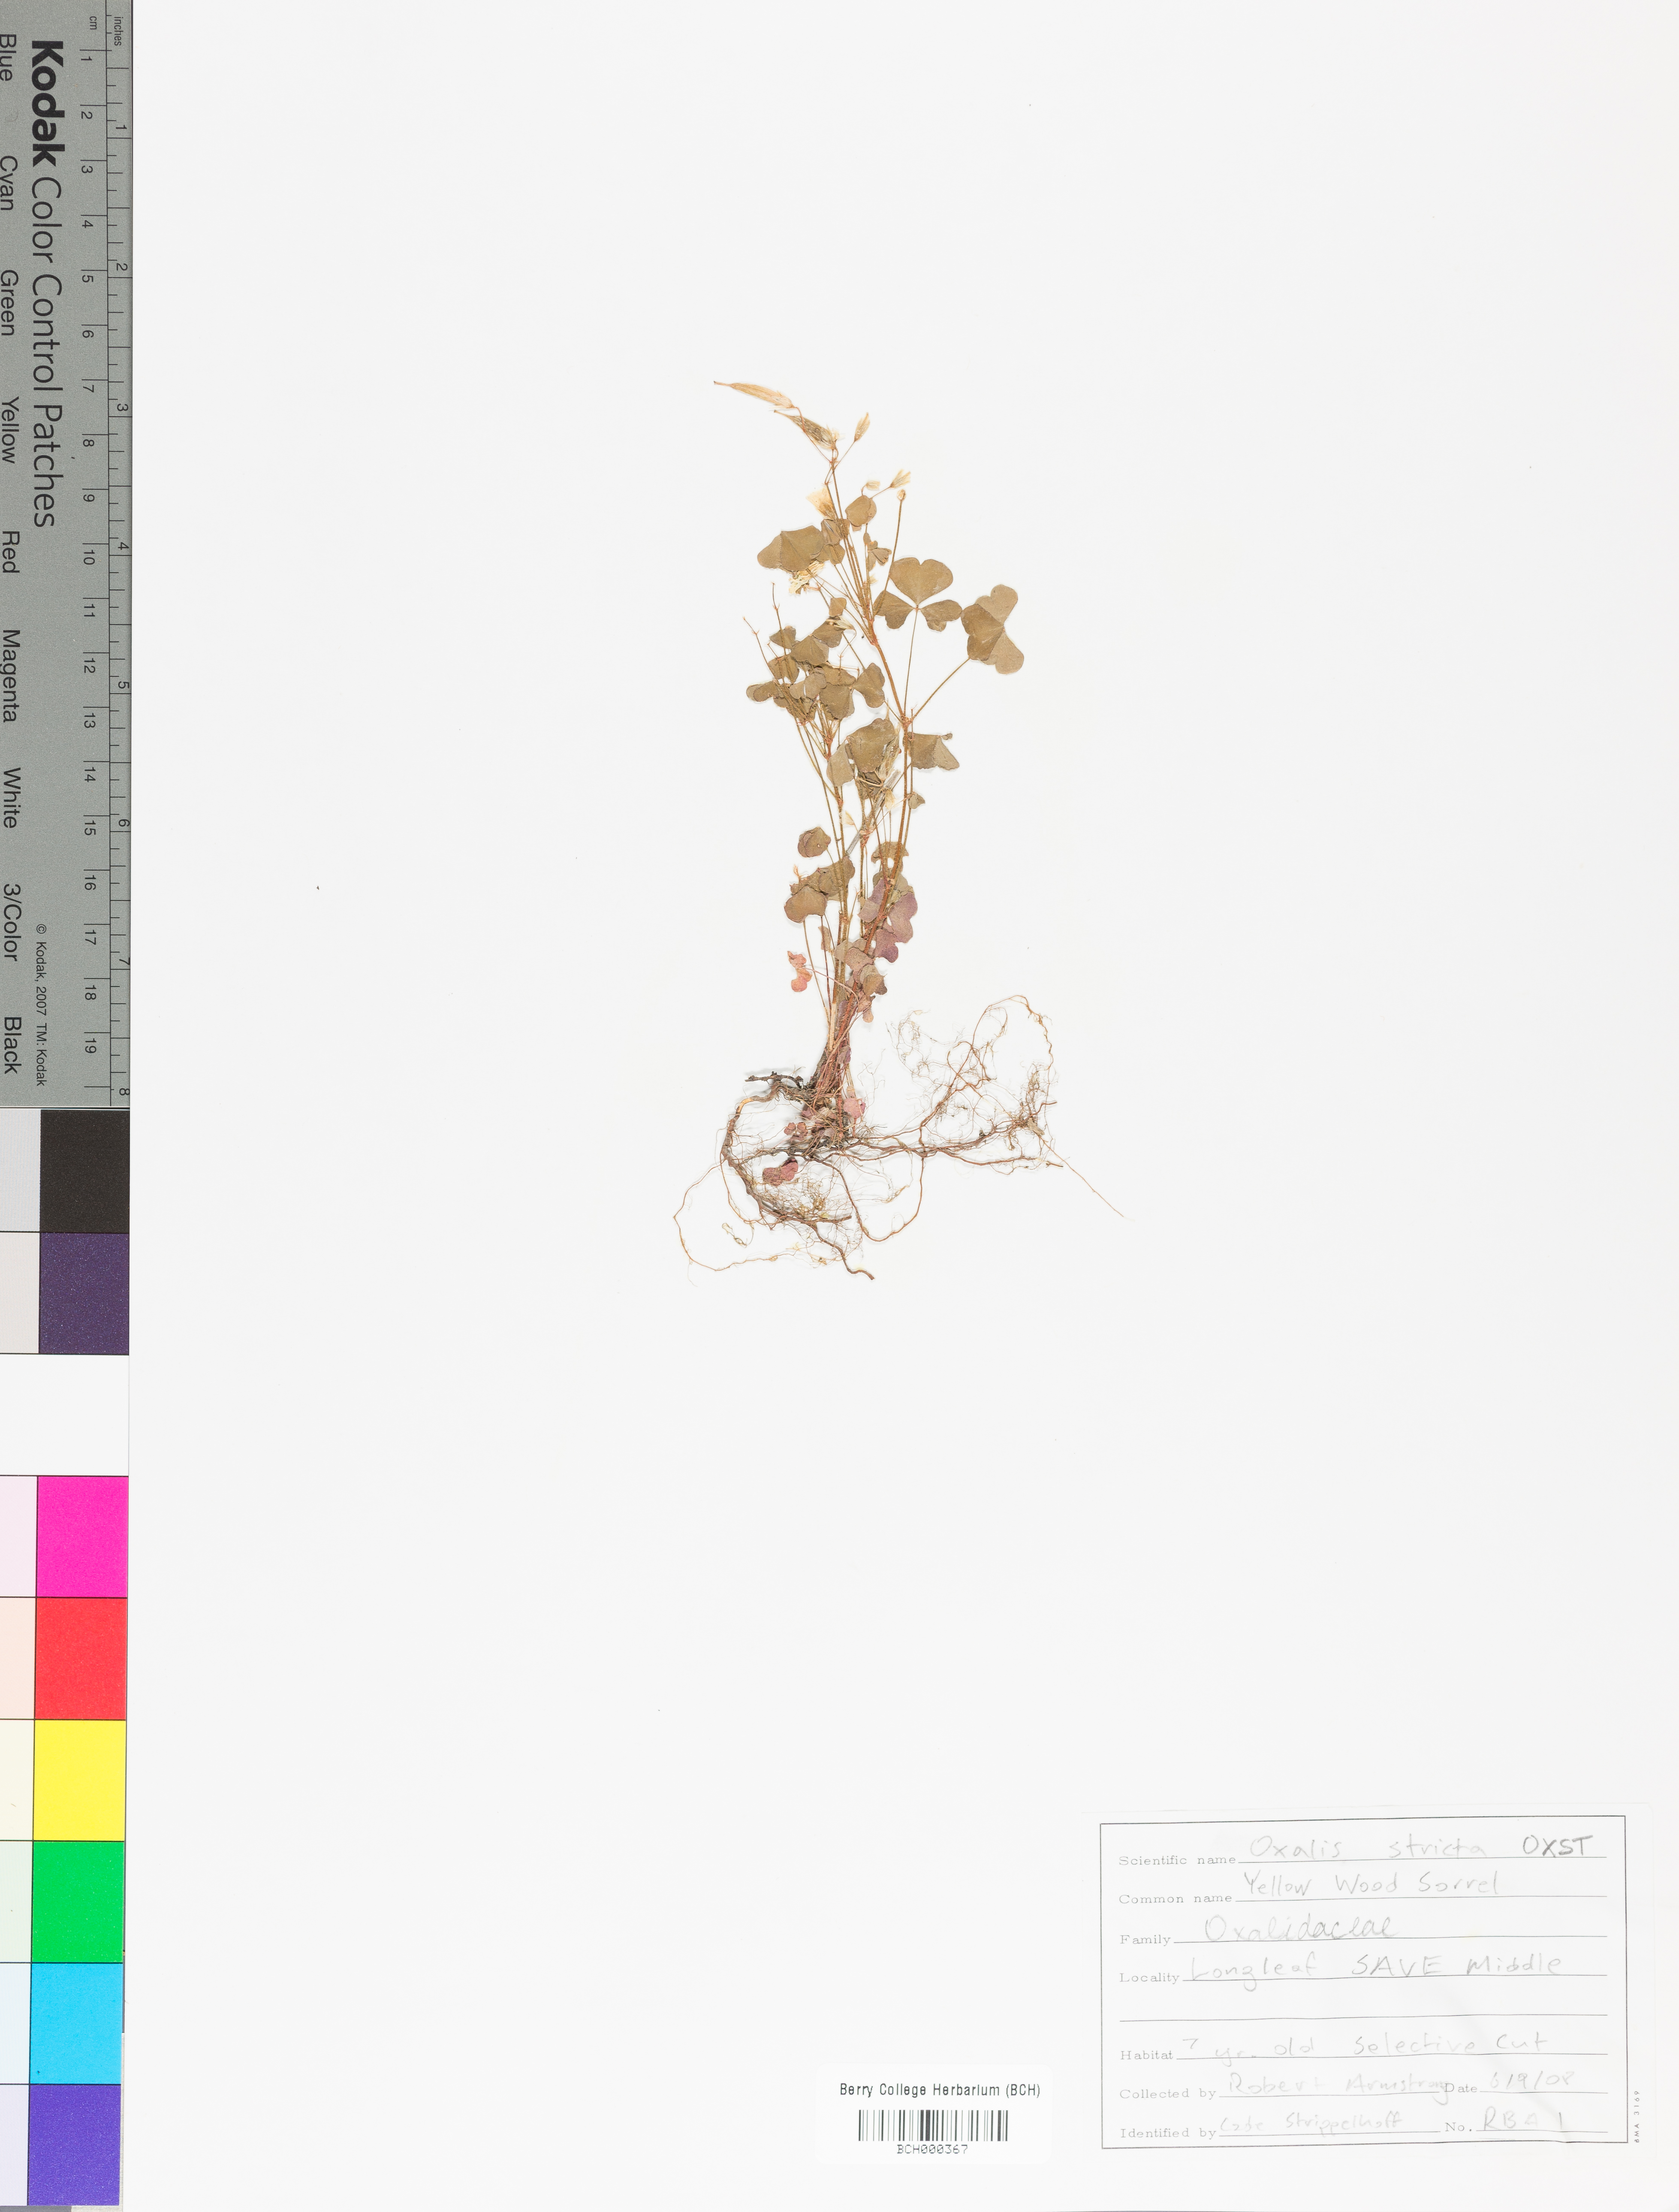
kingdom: Plantae
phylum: Tracheophyta
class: Magnoliopsida
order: Oxalidales
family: Oxalidaceae
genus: Oxalis
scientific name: Oxalis stricta
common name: Upright yellow-sorrel
